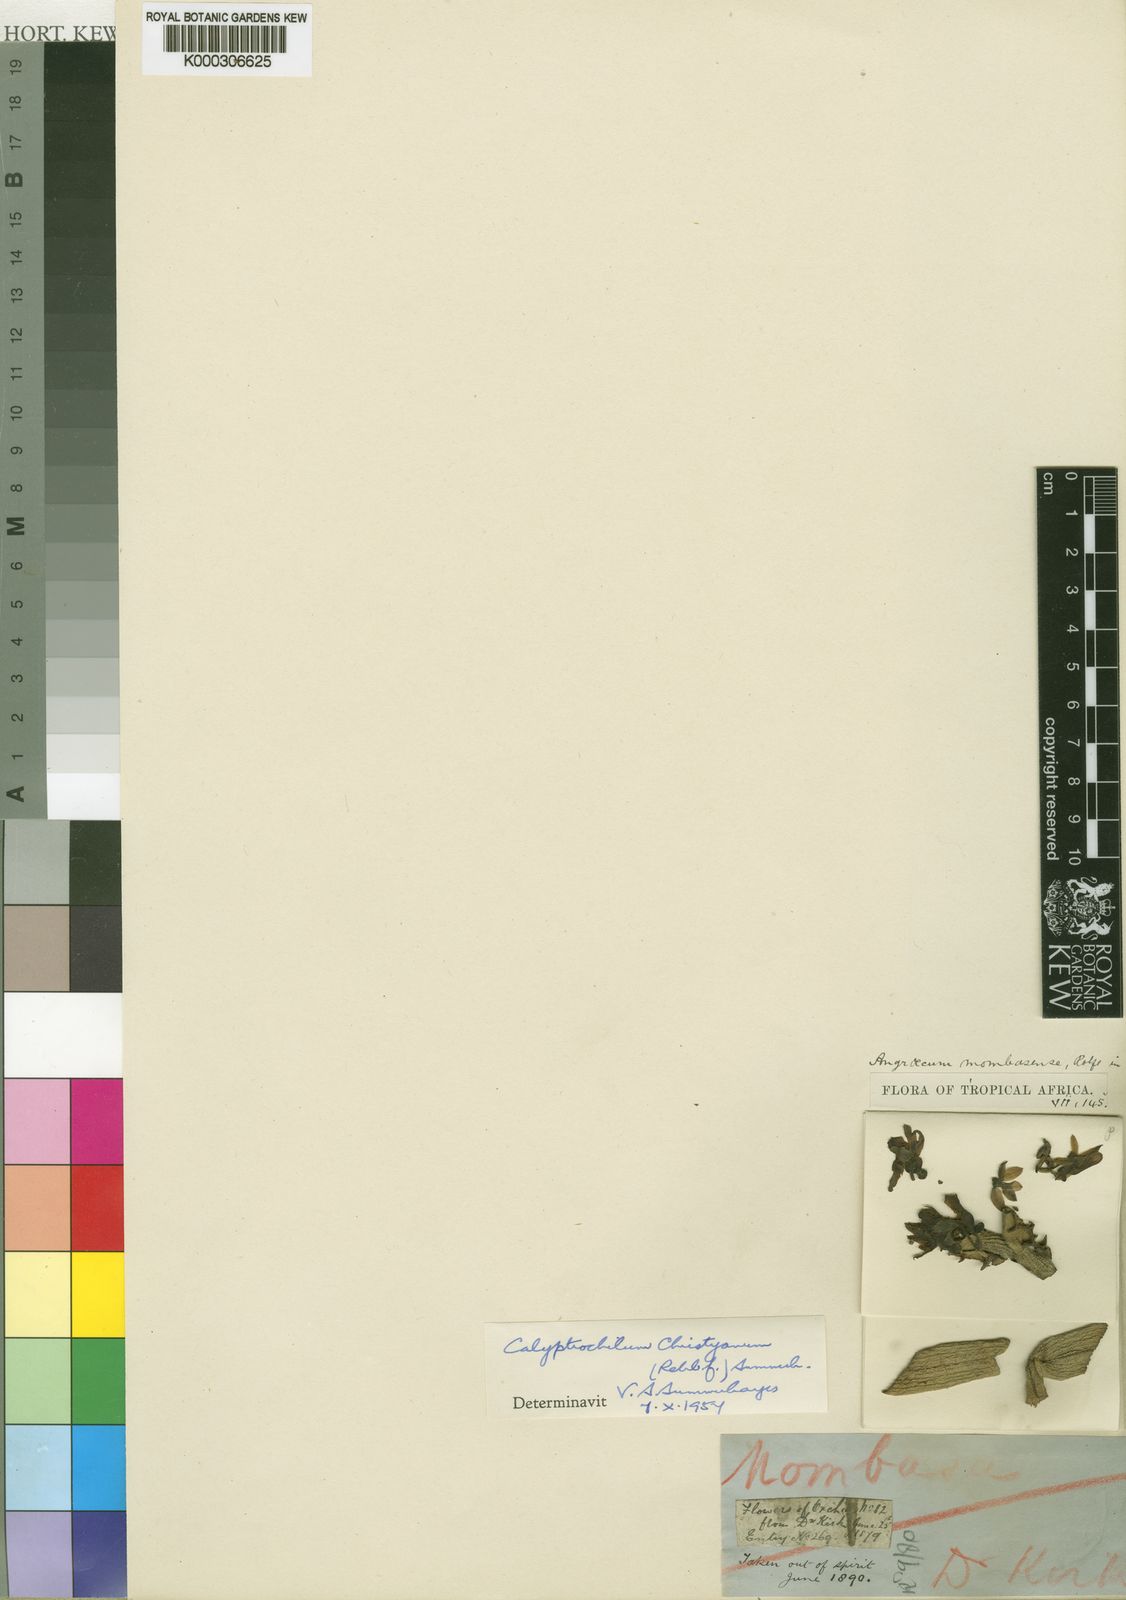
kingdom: Plantae
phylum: Tracheophyta
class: Liliopsida
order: Asparagales
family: Orchidaceae
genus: Calyptrochilum
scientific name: Calyptrochilum christyanum
